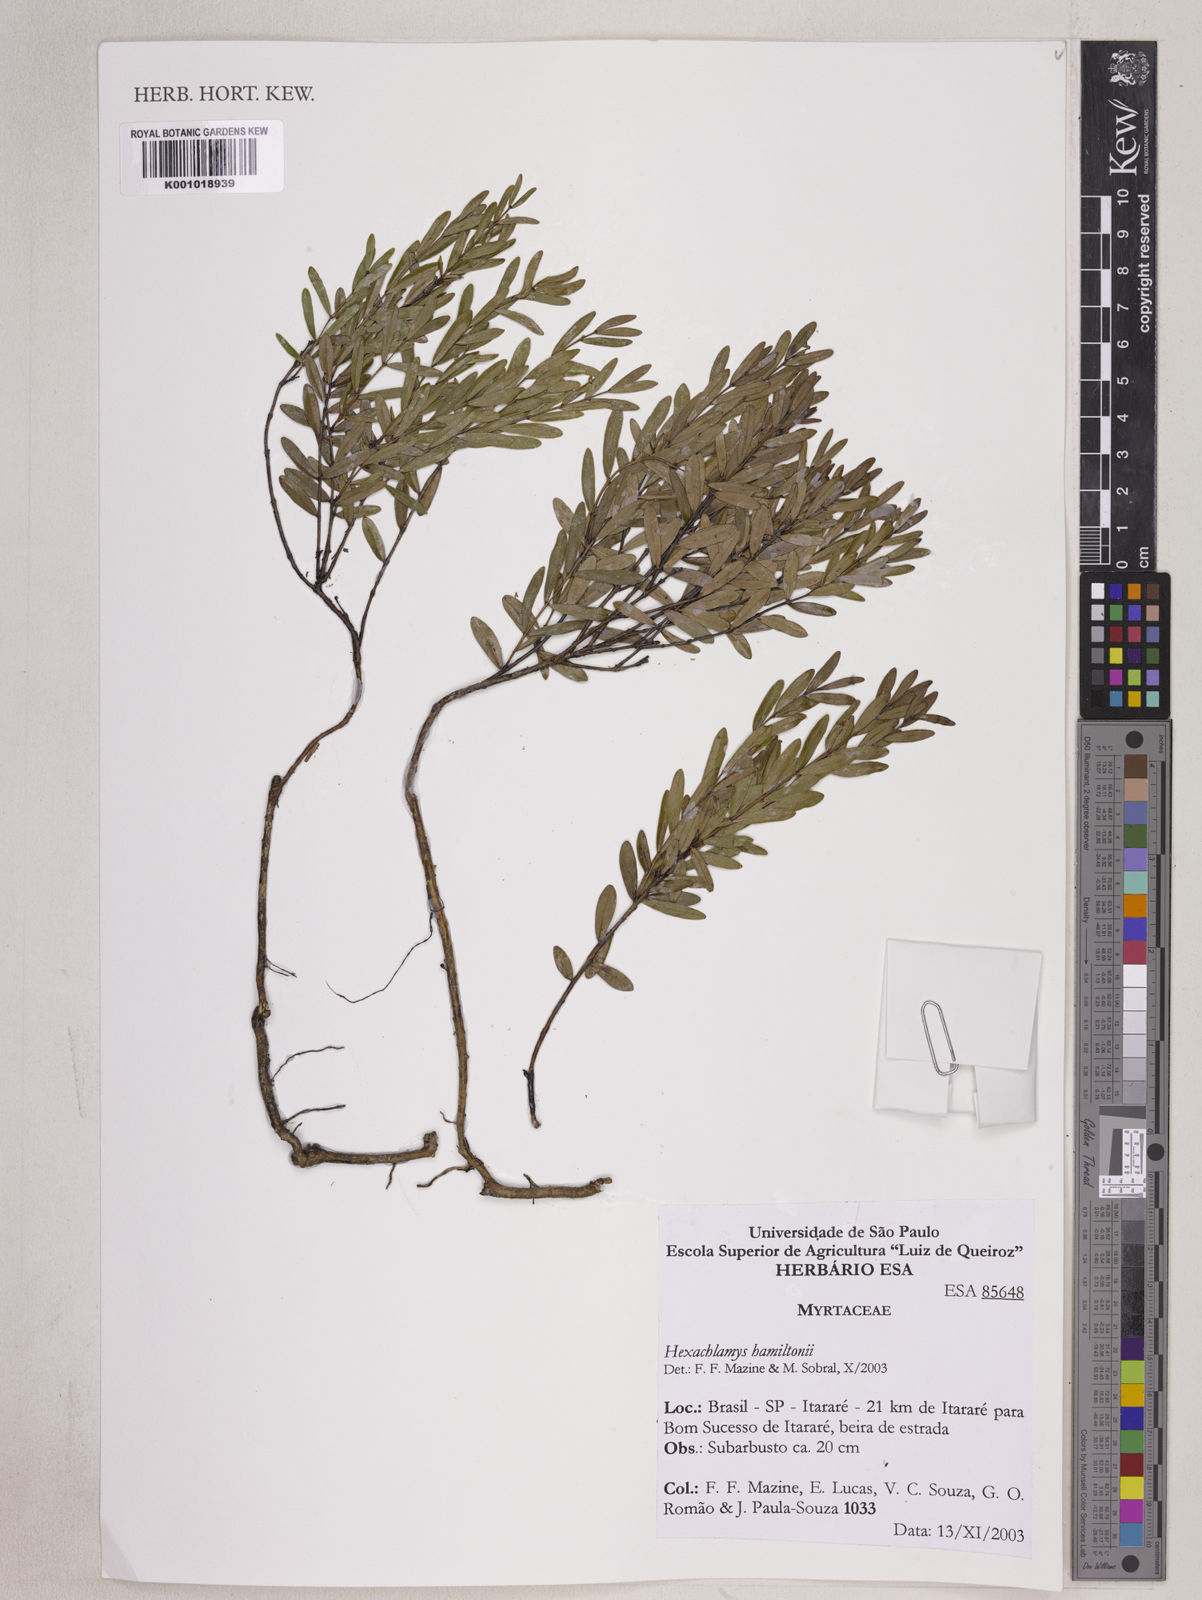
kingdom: Plantae
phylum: Tracheophyta
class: Magnoliopsida
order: Myrtales
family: Myrtaceae
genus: Eugenia
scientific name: Eugenia hamiltonii
